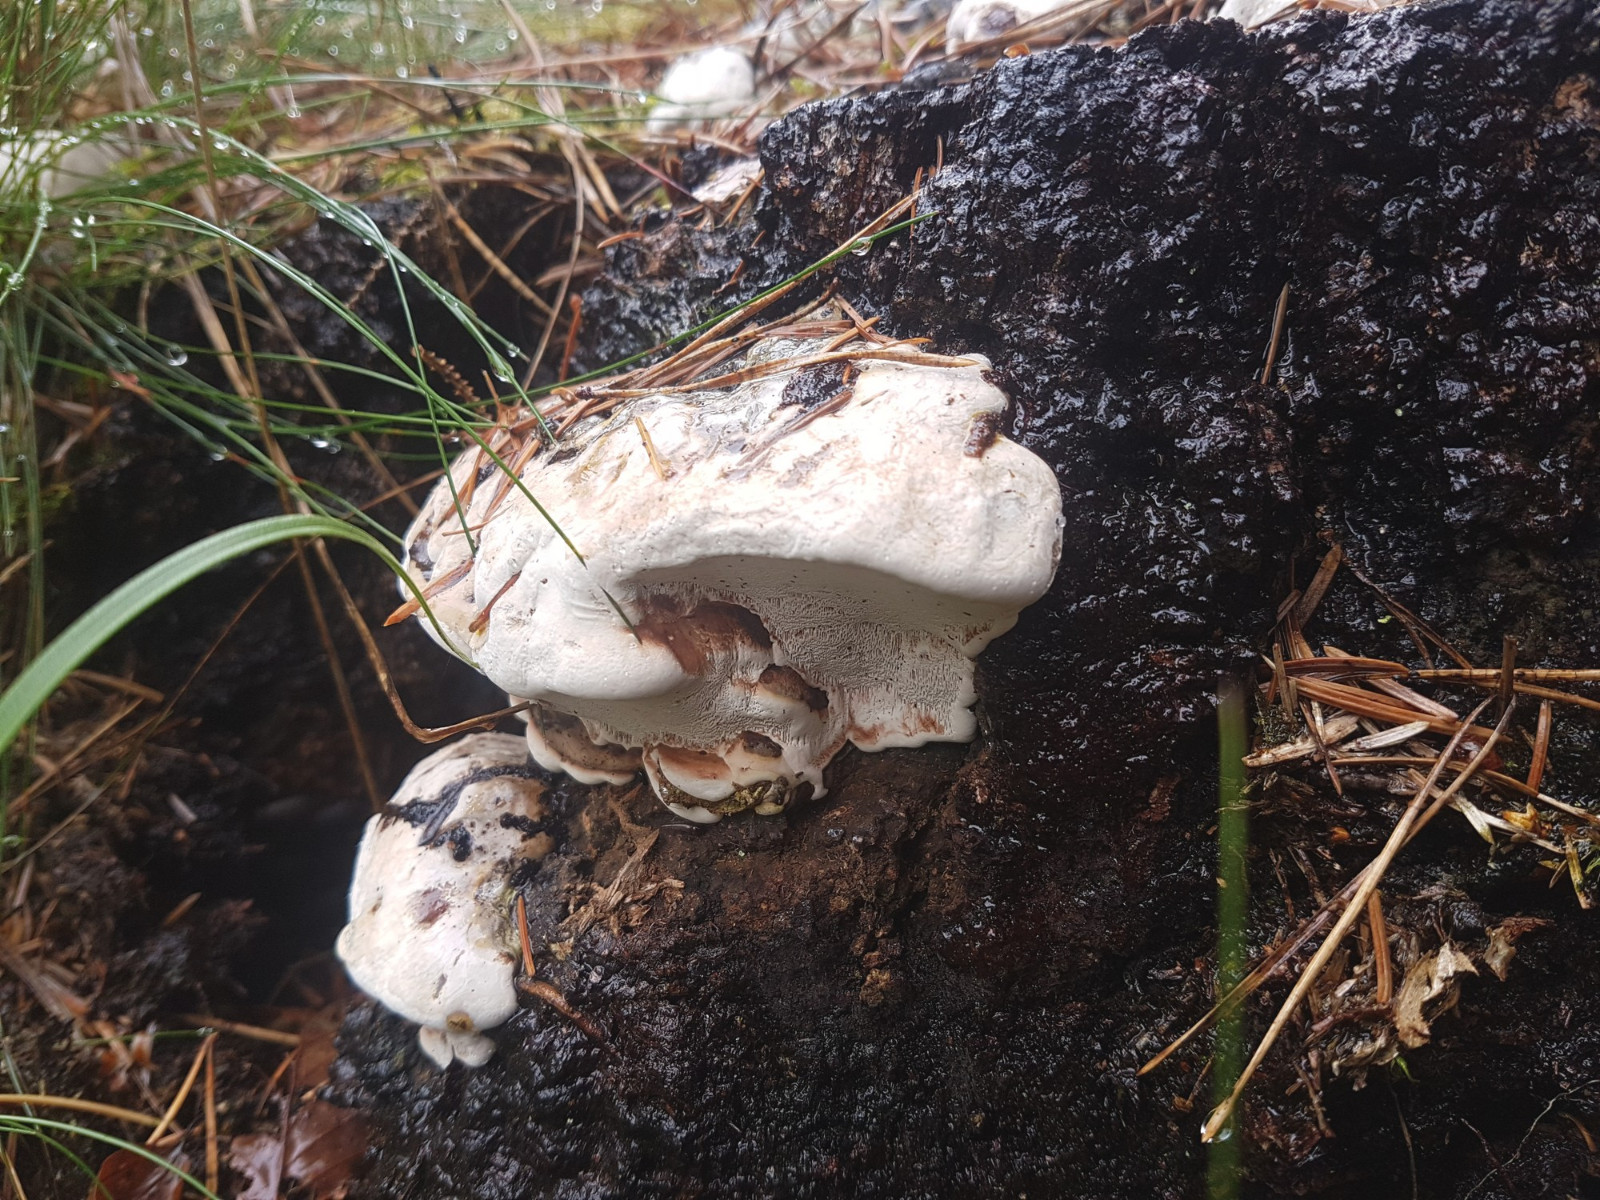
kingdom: Fungi
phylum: Basidiomycota
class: Agaricomycetes
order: Polyporales
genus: Amaropostia
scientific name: Amaropostia stiptica
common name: bitter kødporesvamp
